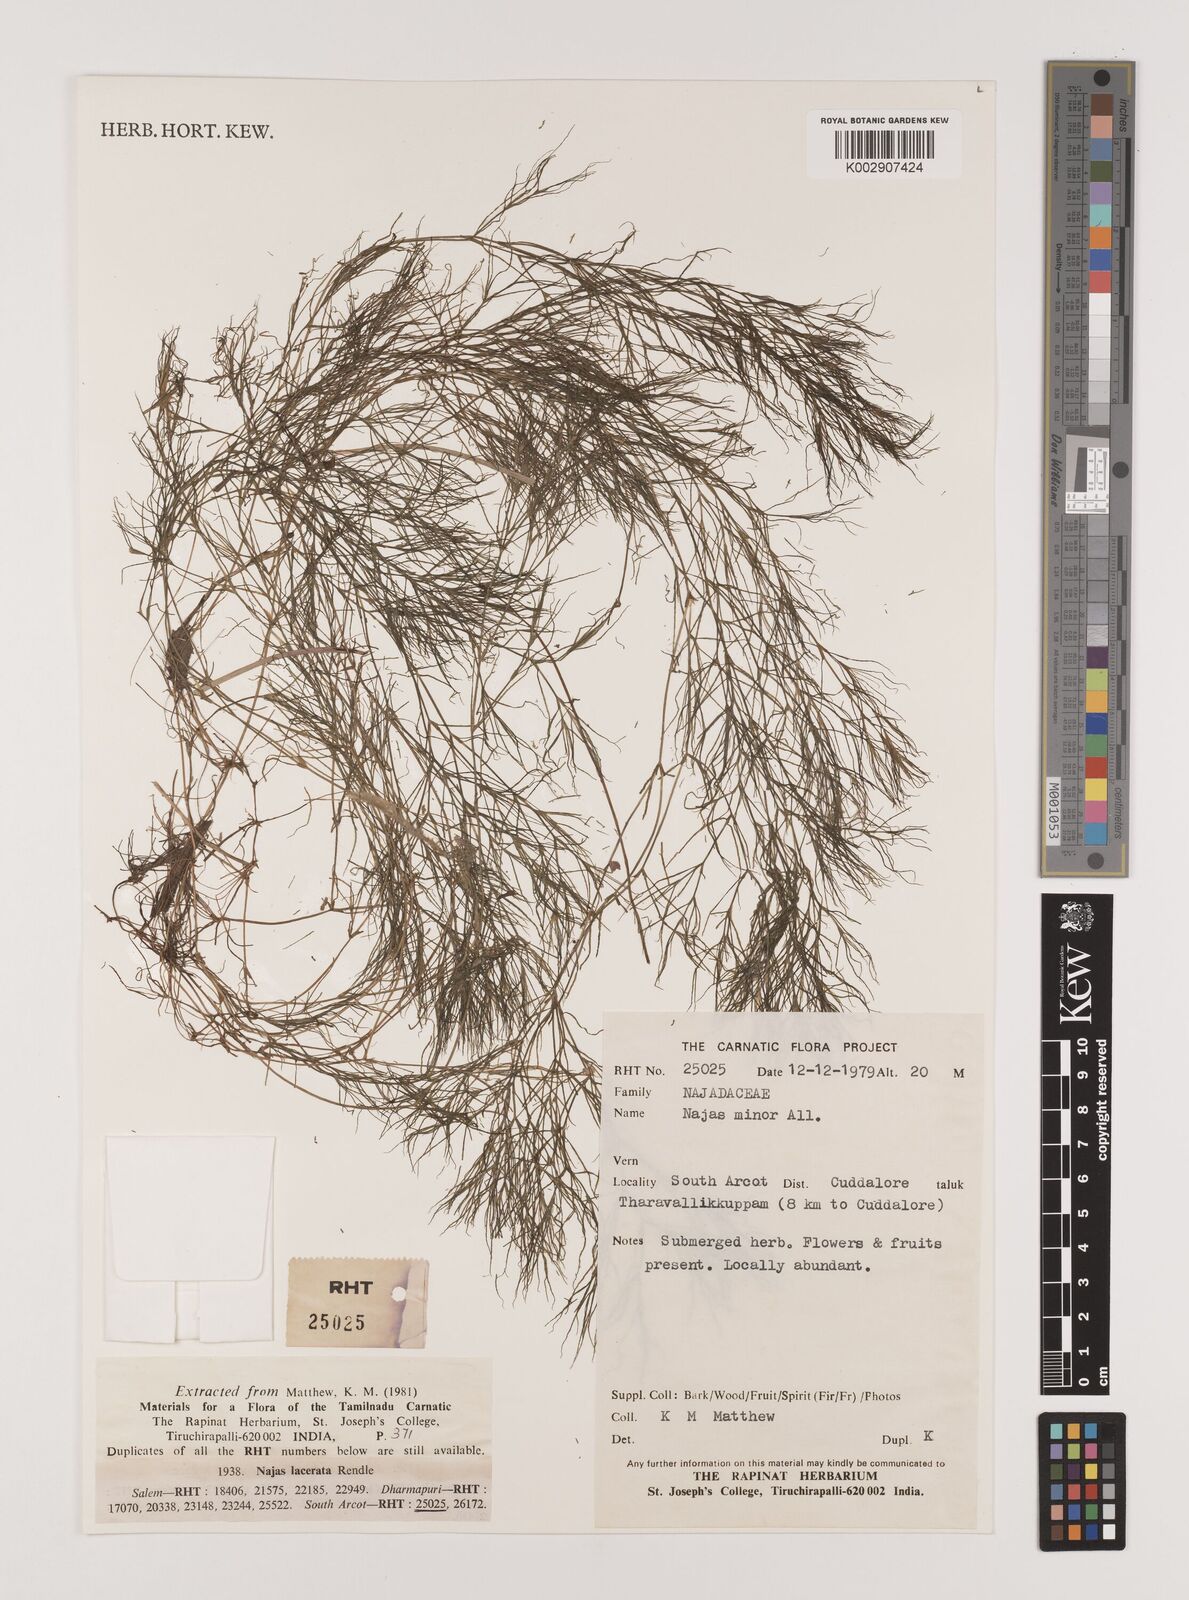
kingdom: Plantae
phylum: Tracheophyta
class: Liliopsida
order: Alismatales
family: Hydrocharitaceae
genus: Najas
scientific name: Najas indica
